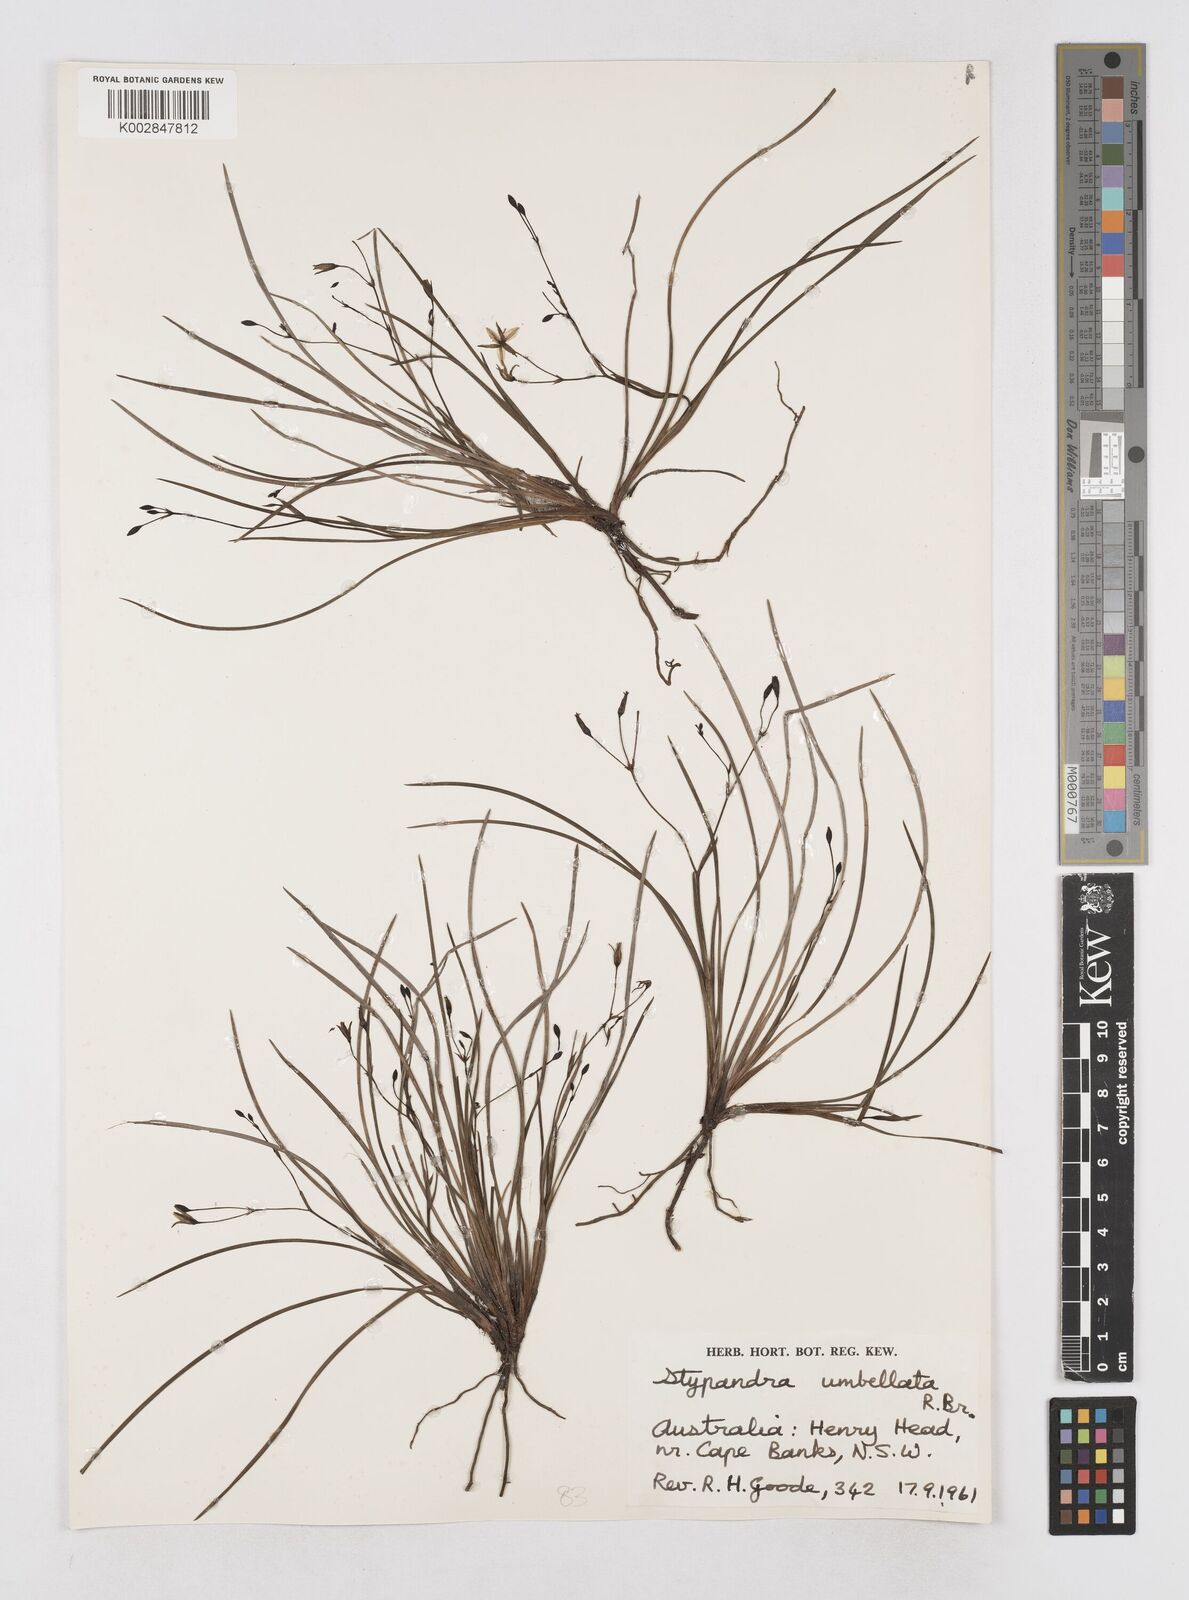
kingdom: Plantae
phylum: Tracheophyta
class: Liliopsida
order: Asparagales
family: Asphodelaceae
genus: Thelionema
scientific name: Thelionema umbellatum
